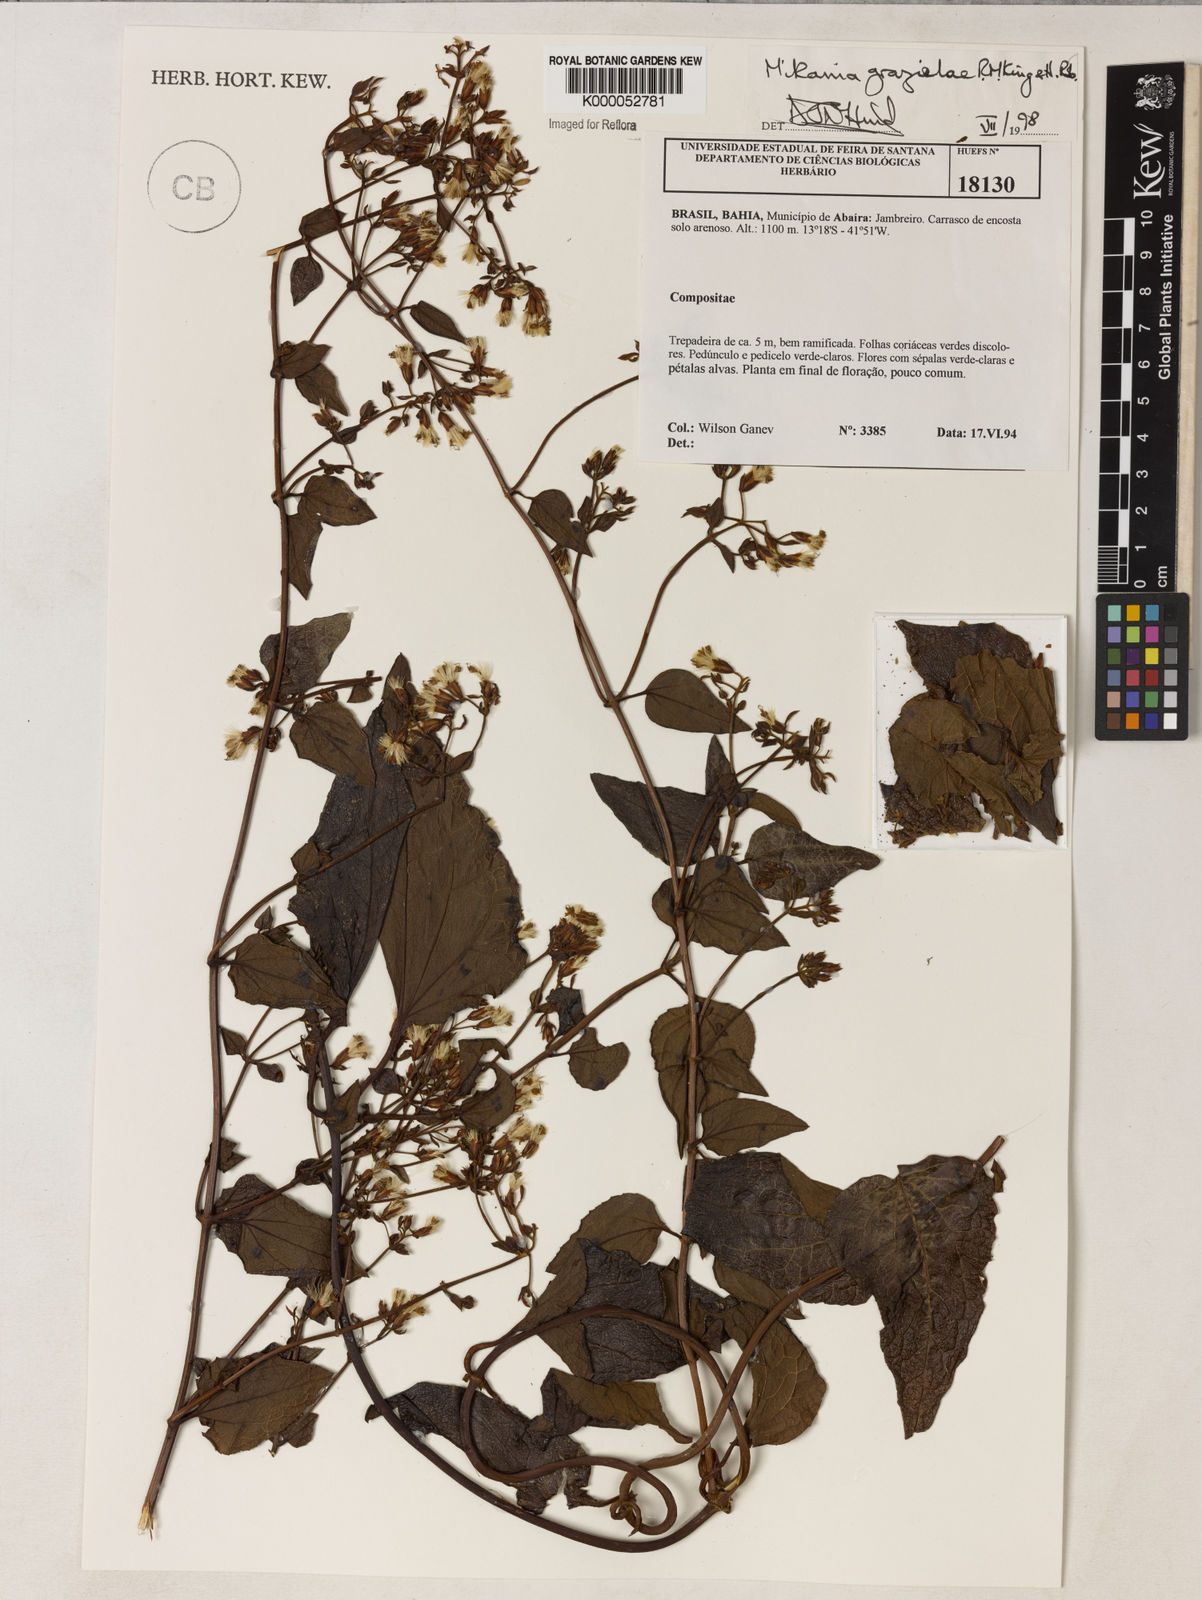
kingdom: Plantae
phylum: Tracheophyta
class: Magnoliopsida
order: Asterales
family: Asteraceae
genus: Mikania
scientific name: Mikania grazielae
